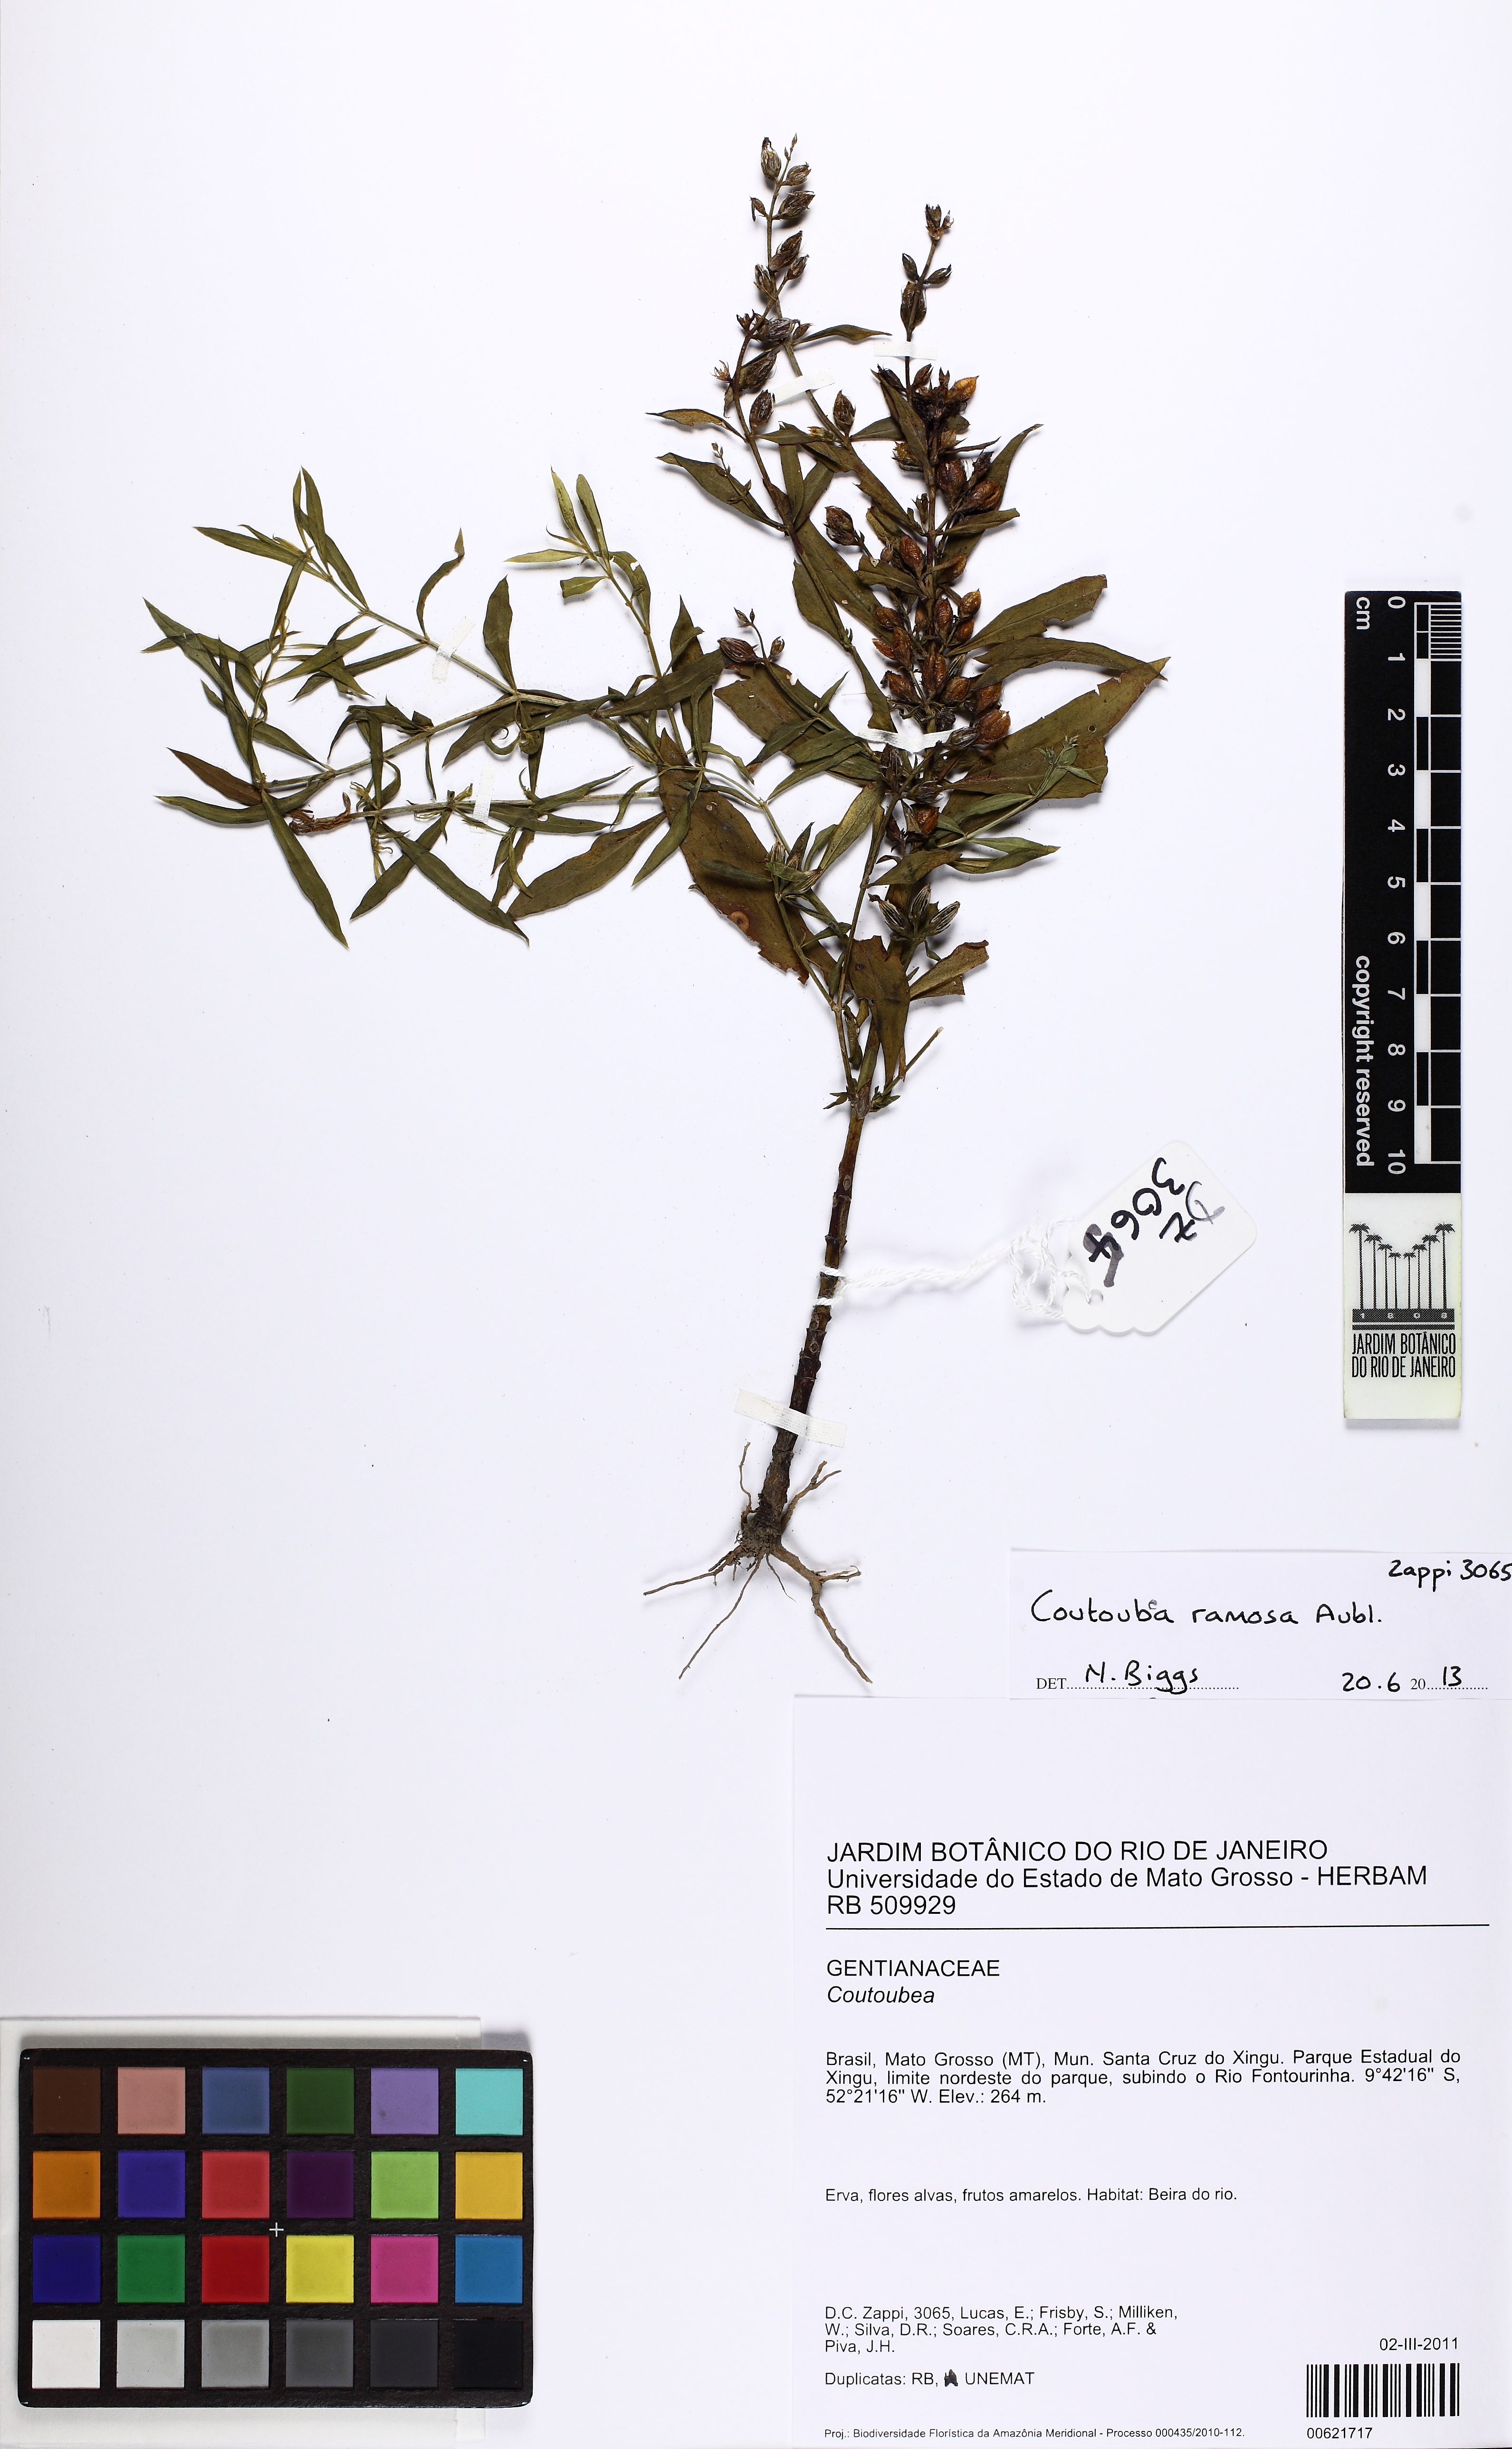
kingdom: Plantae
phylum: Tracheophyta
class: Magnoliopsida
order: Gentianales
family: Gentianaceae
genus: Coutoubea
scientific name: Coutoubea ramosa
